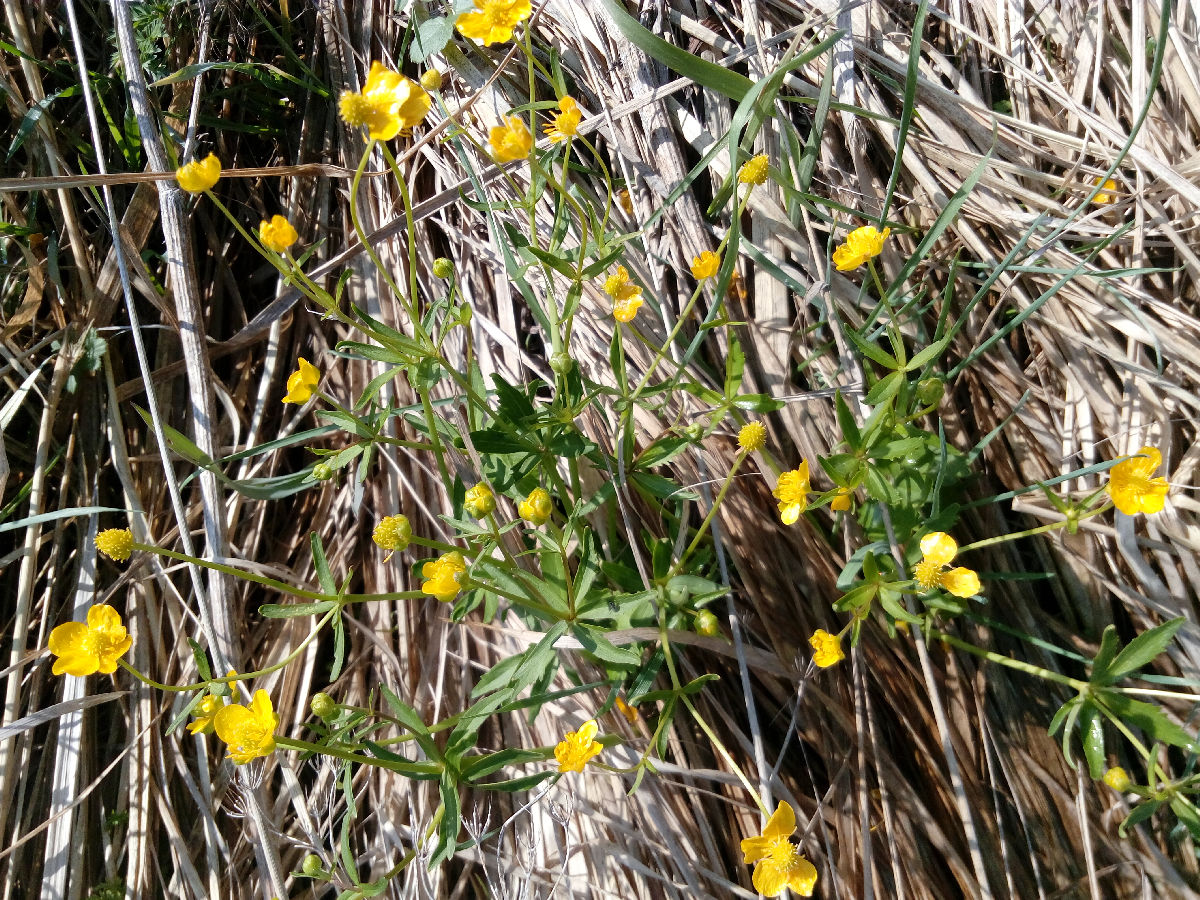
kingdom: Plantae
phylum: Tracheophyta
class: Magnoliopsida
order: Ranunculales
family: Ranunculaceae
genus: Ranunculus
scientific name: Ranunculus cassubicus
